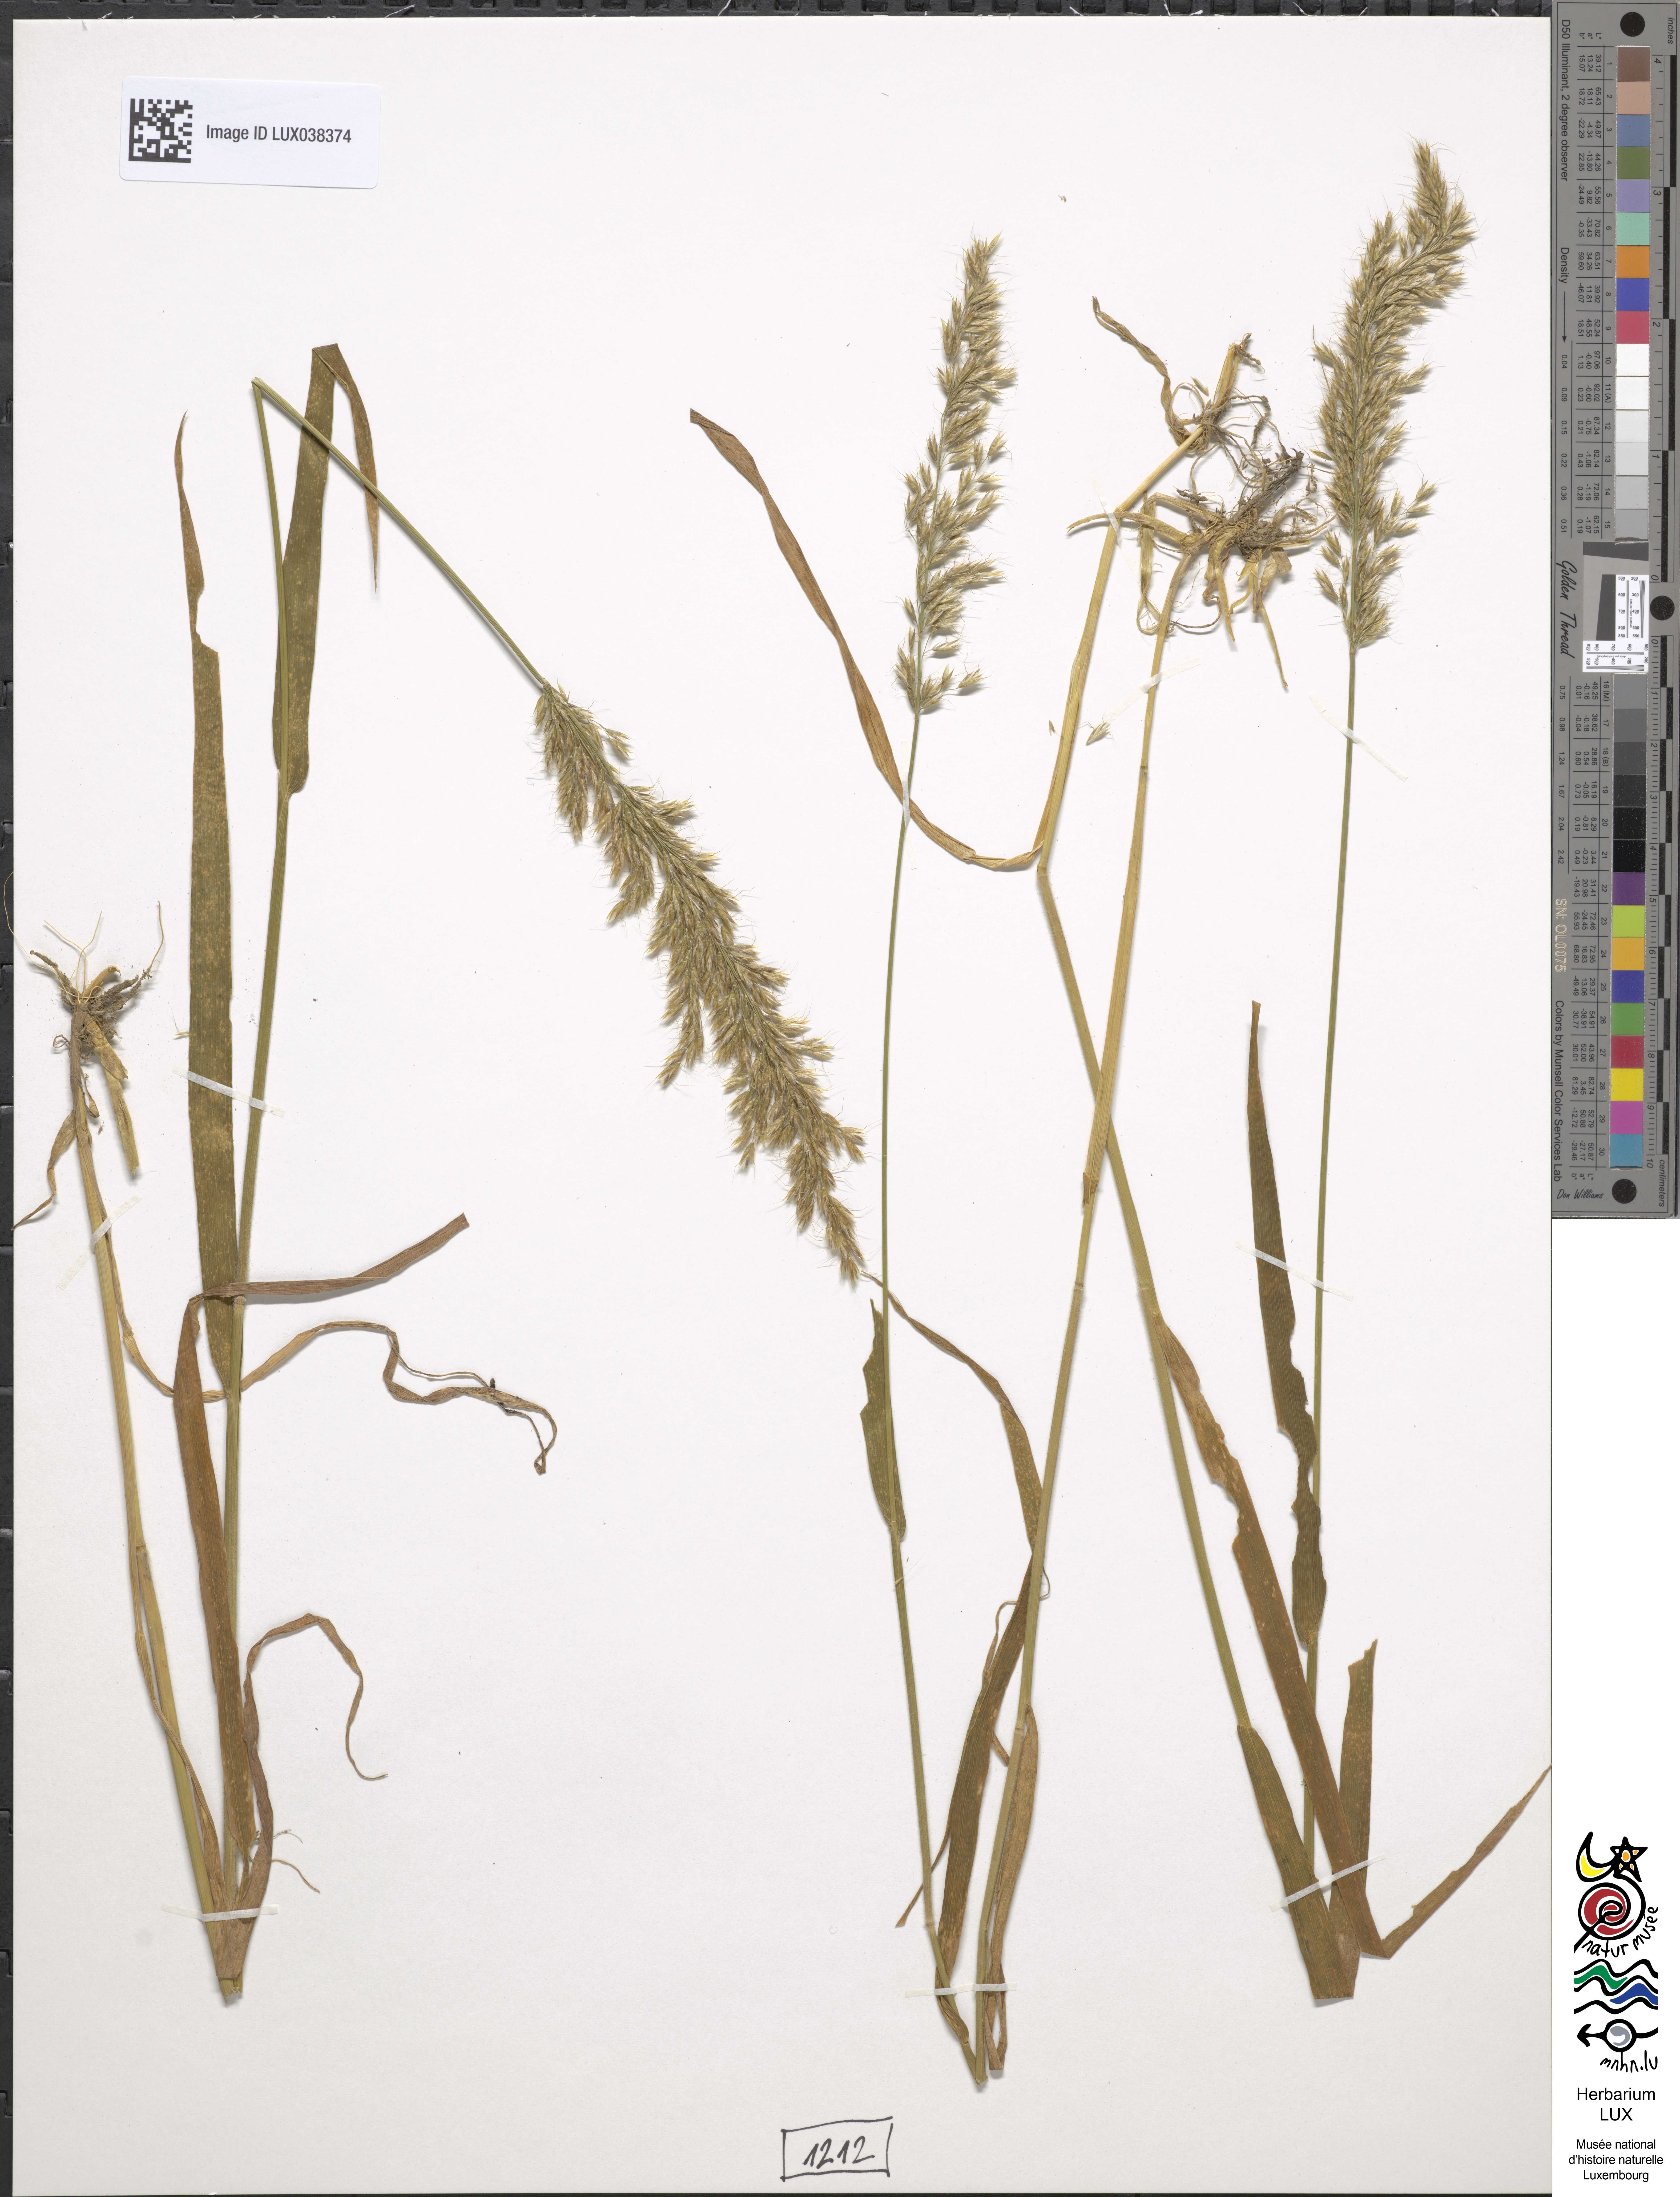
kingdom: Plantae
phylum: Tracheophyta
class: Liliopsida
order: Poales
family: Poaceae
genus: Avenula
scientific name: Avenula pubescens
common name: Downy alpine oatgrass
